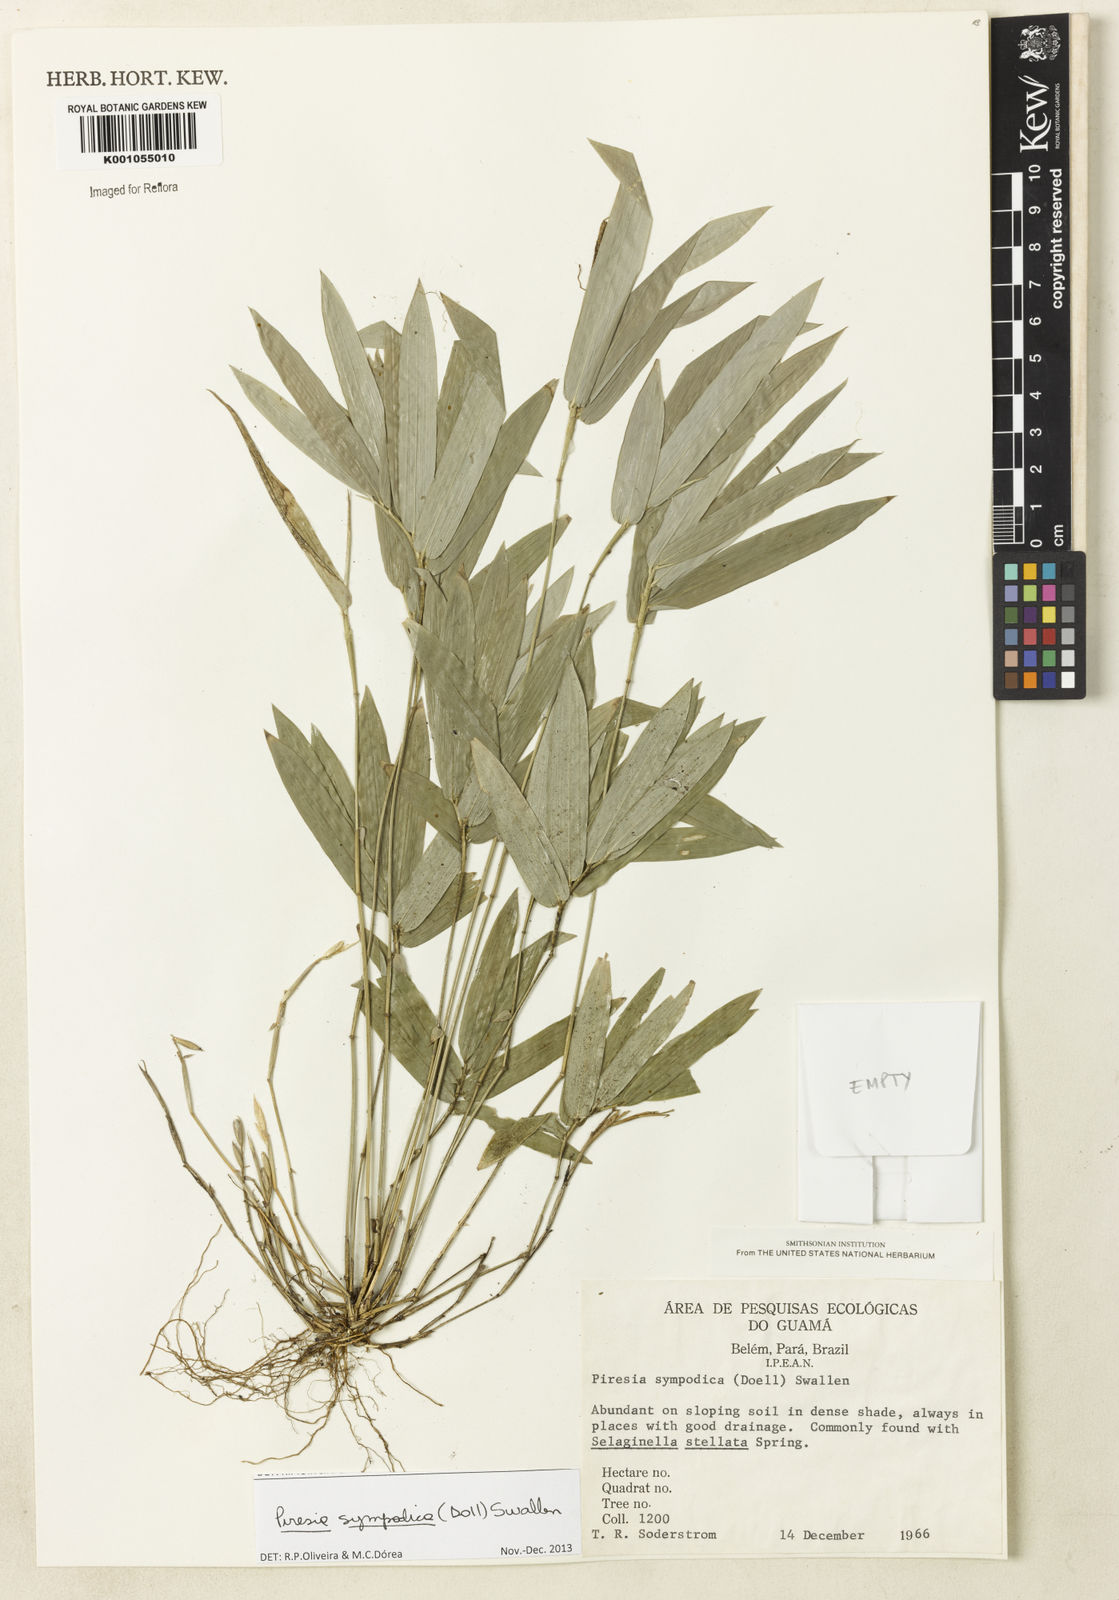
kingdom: Plantae
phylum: Tracheophyta
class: Liliopsida
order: Poales
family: Poaceae
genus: Piresia
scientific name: Piresia
